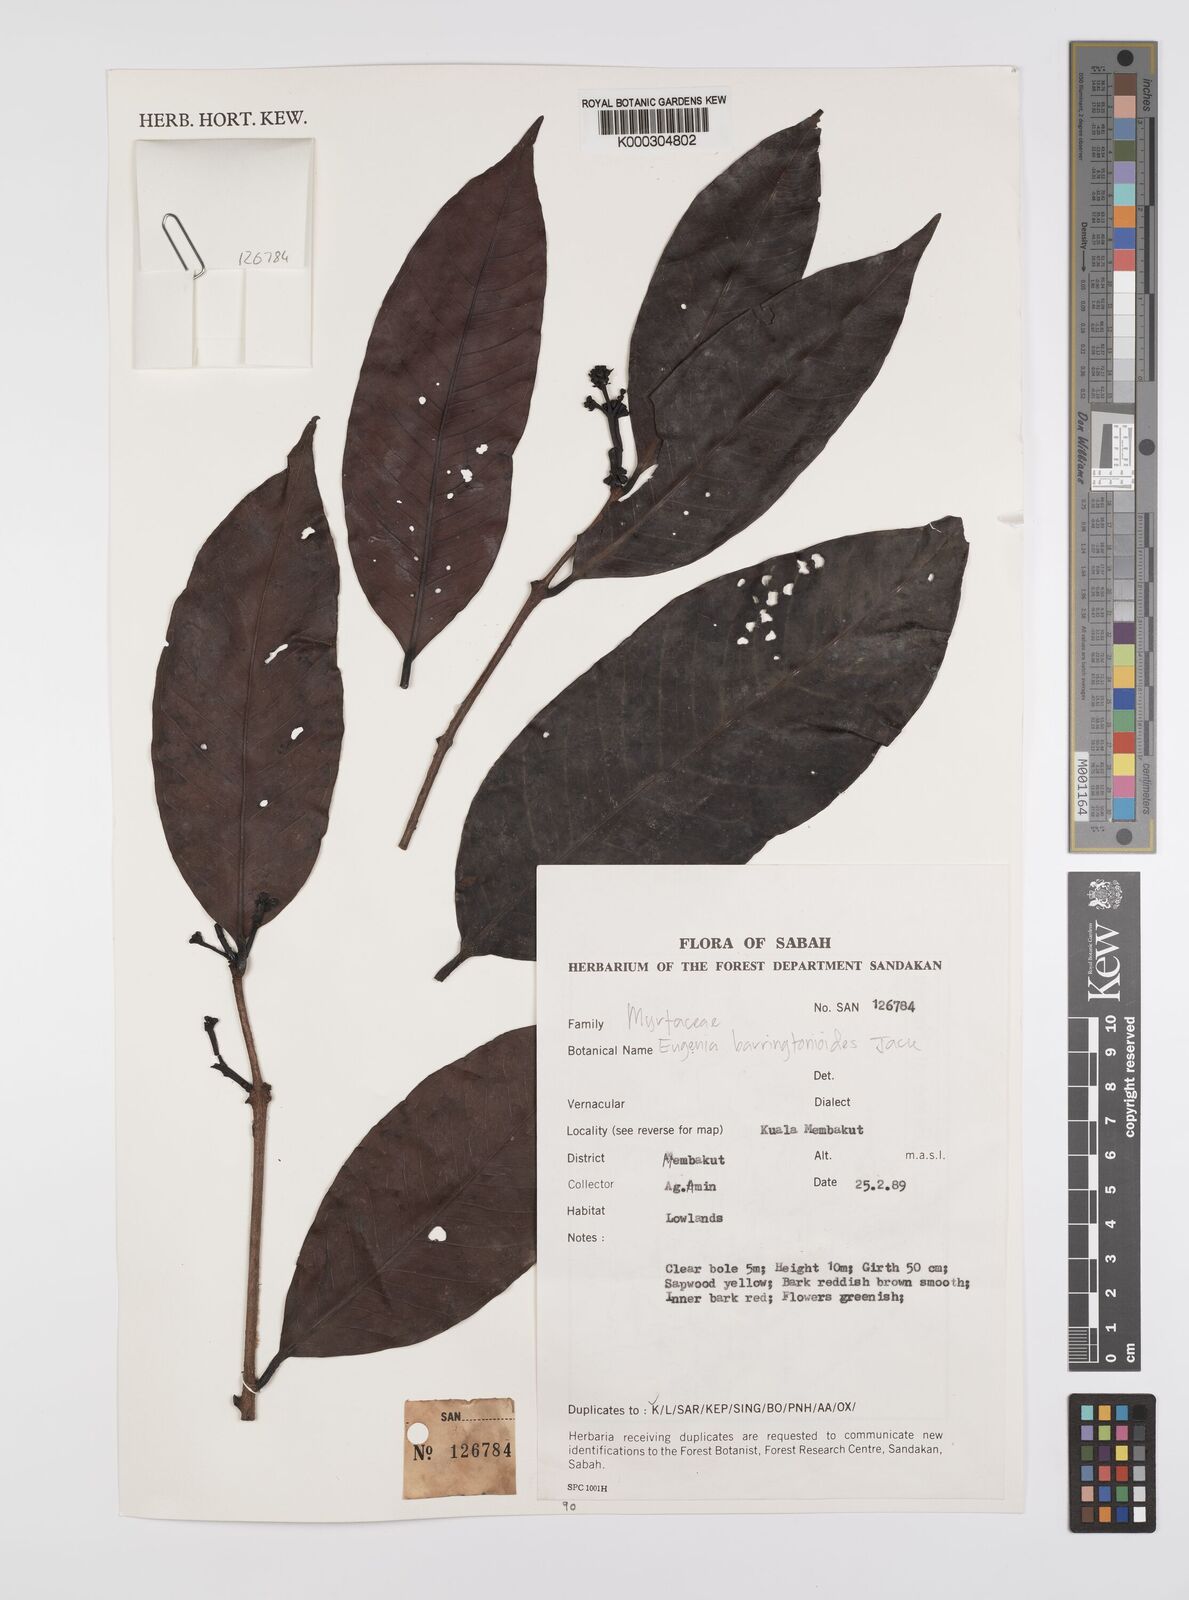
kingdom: Plantae
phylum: Tracheophyta
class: Magnoliopsida
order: Myrtales
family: Myrtaceae
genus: Syzygium
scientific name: Syzygium barringtonioides
